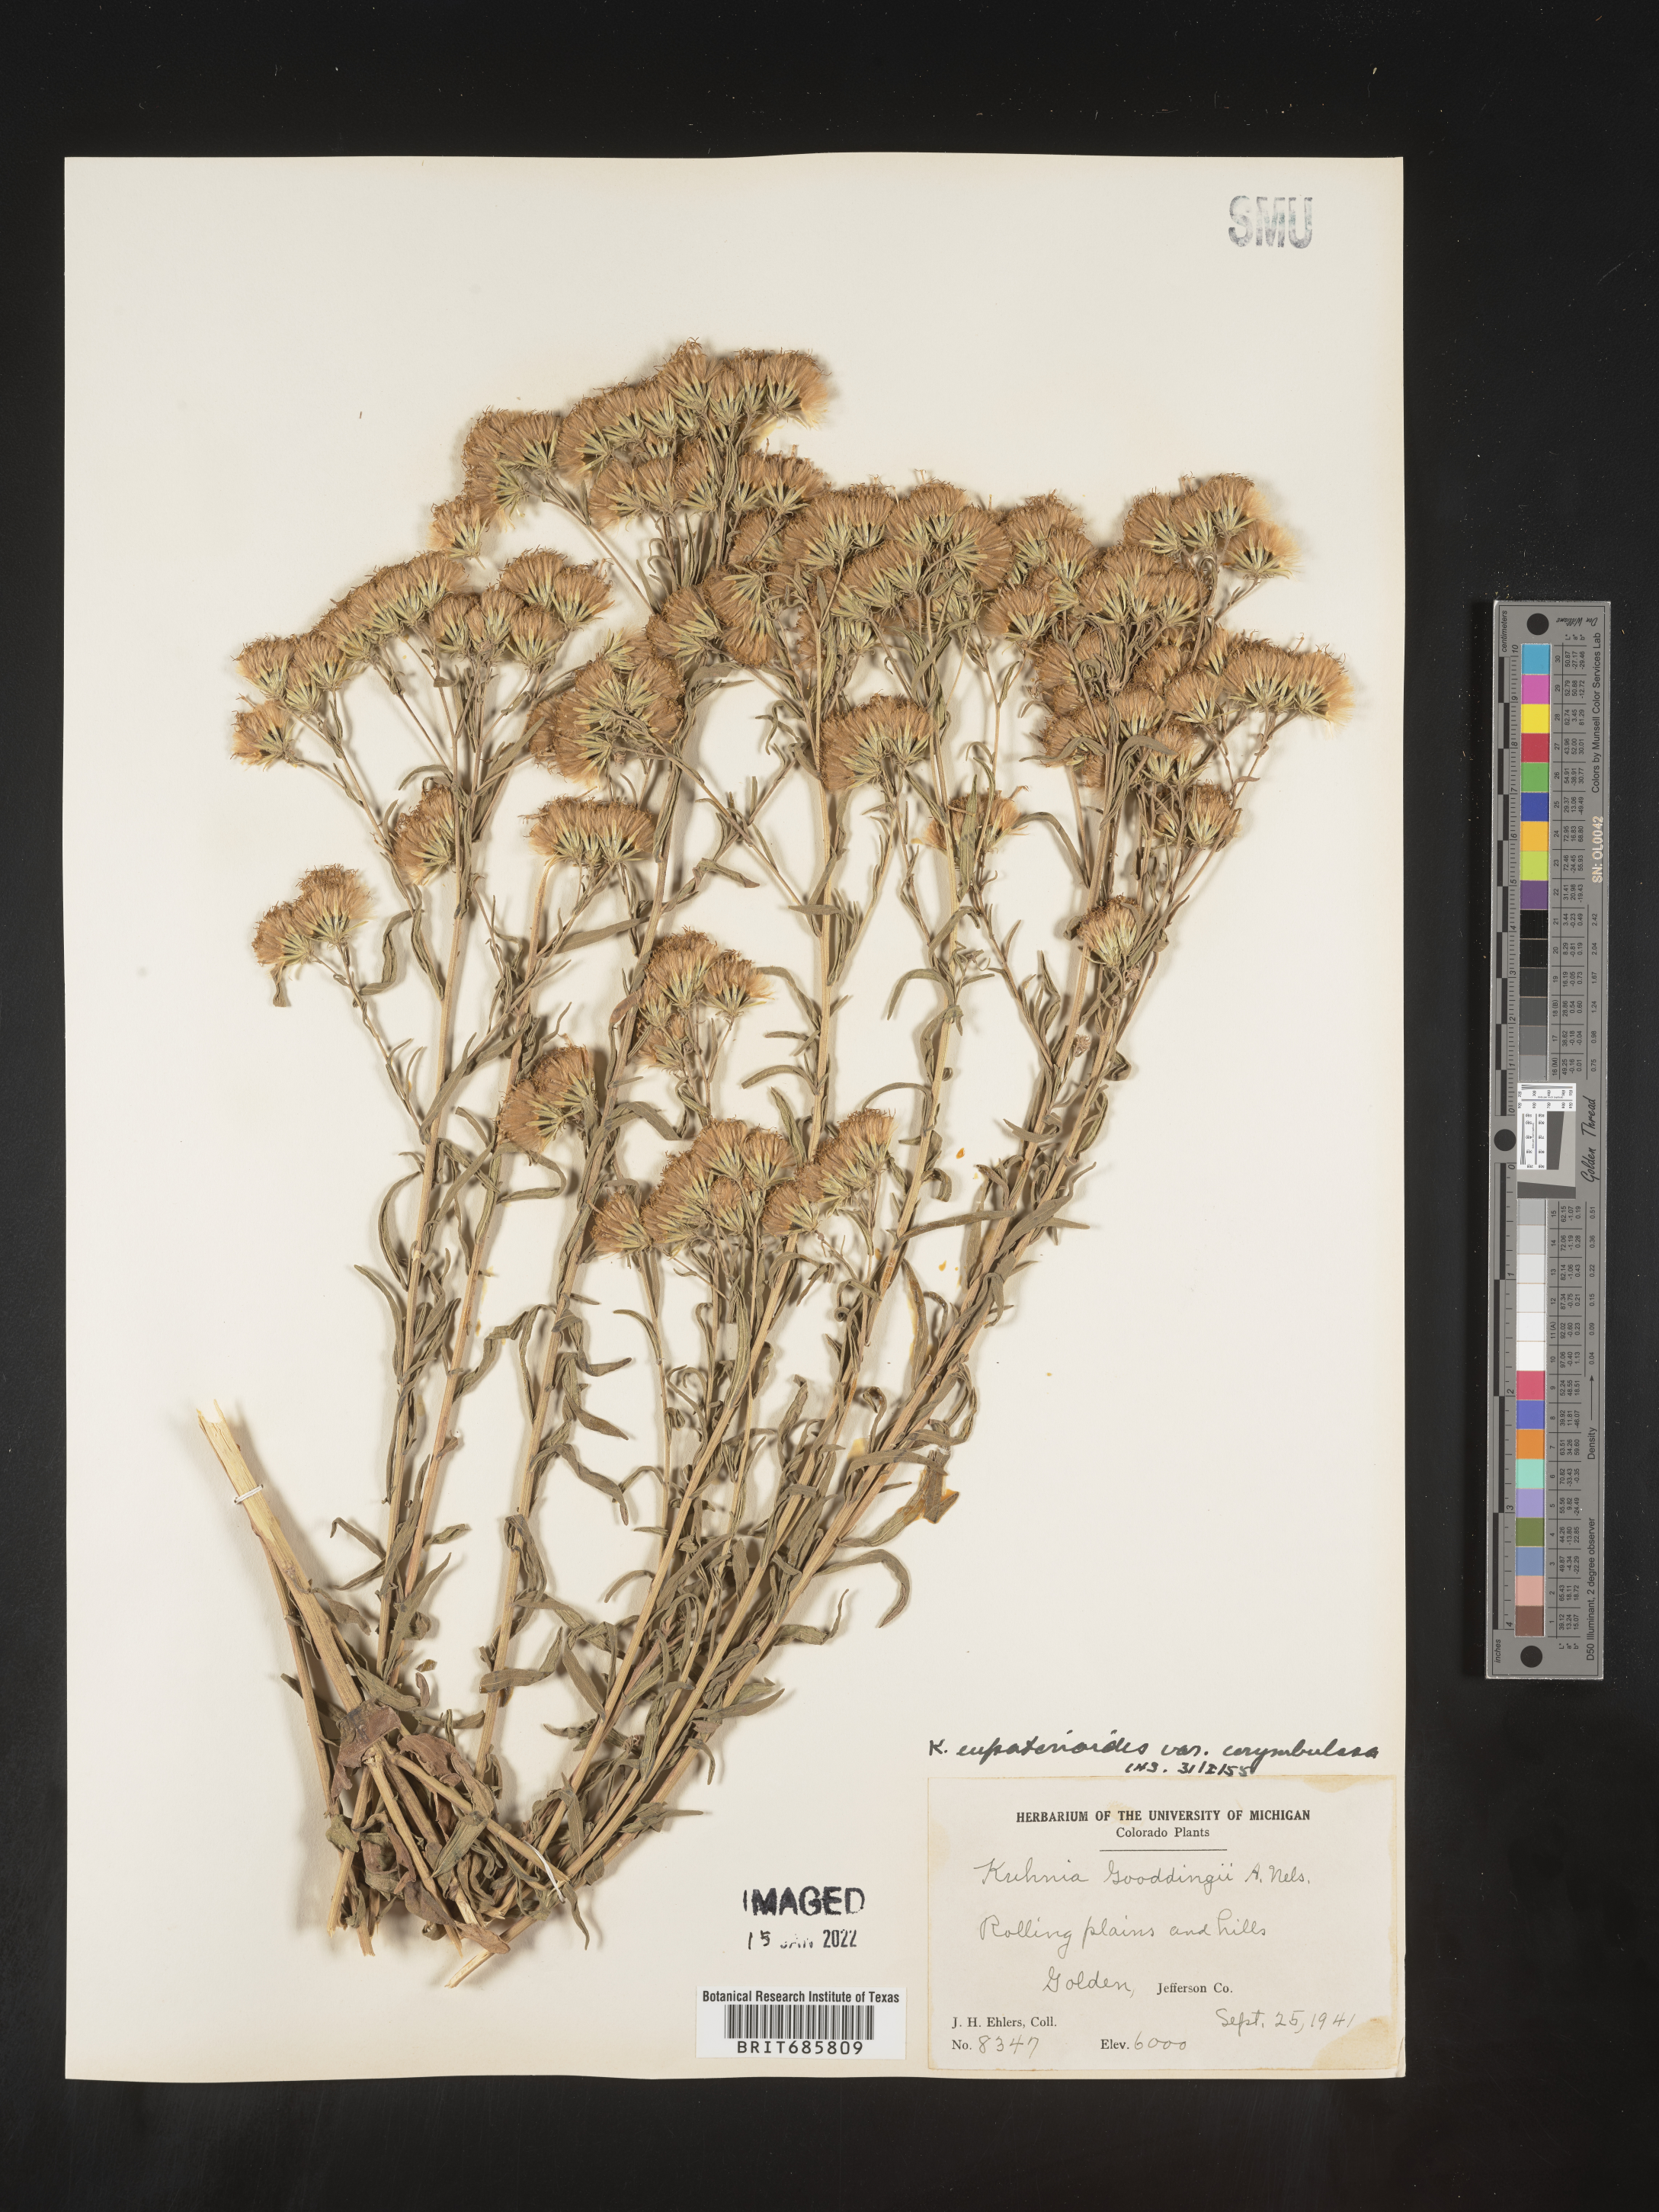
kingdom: Plantae
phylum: Tracheophyta
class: Magnoliopsida
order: Asterales
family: Asteraceae
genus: Brickellia
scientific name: Brickellia eupatorioides
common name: False boneset
